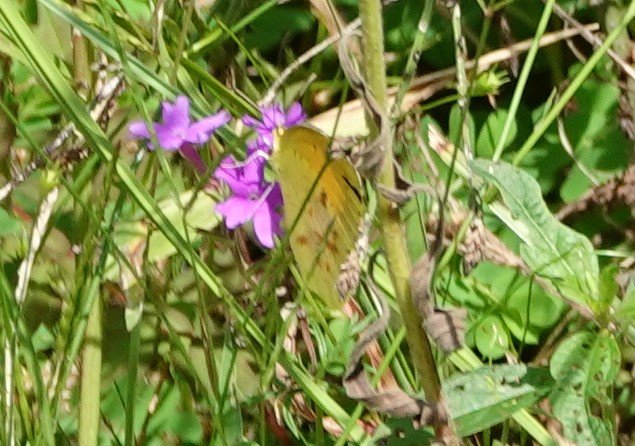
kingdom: Animalia
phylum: Arthropoda
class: Insecta
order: Lepidoptera
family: Pieridae
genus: Abaeis
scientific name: Abaeis nicippe
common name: Sleepy Orange
